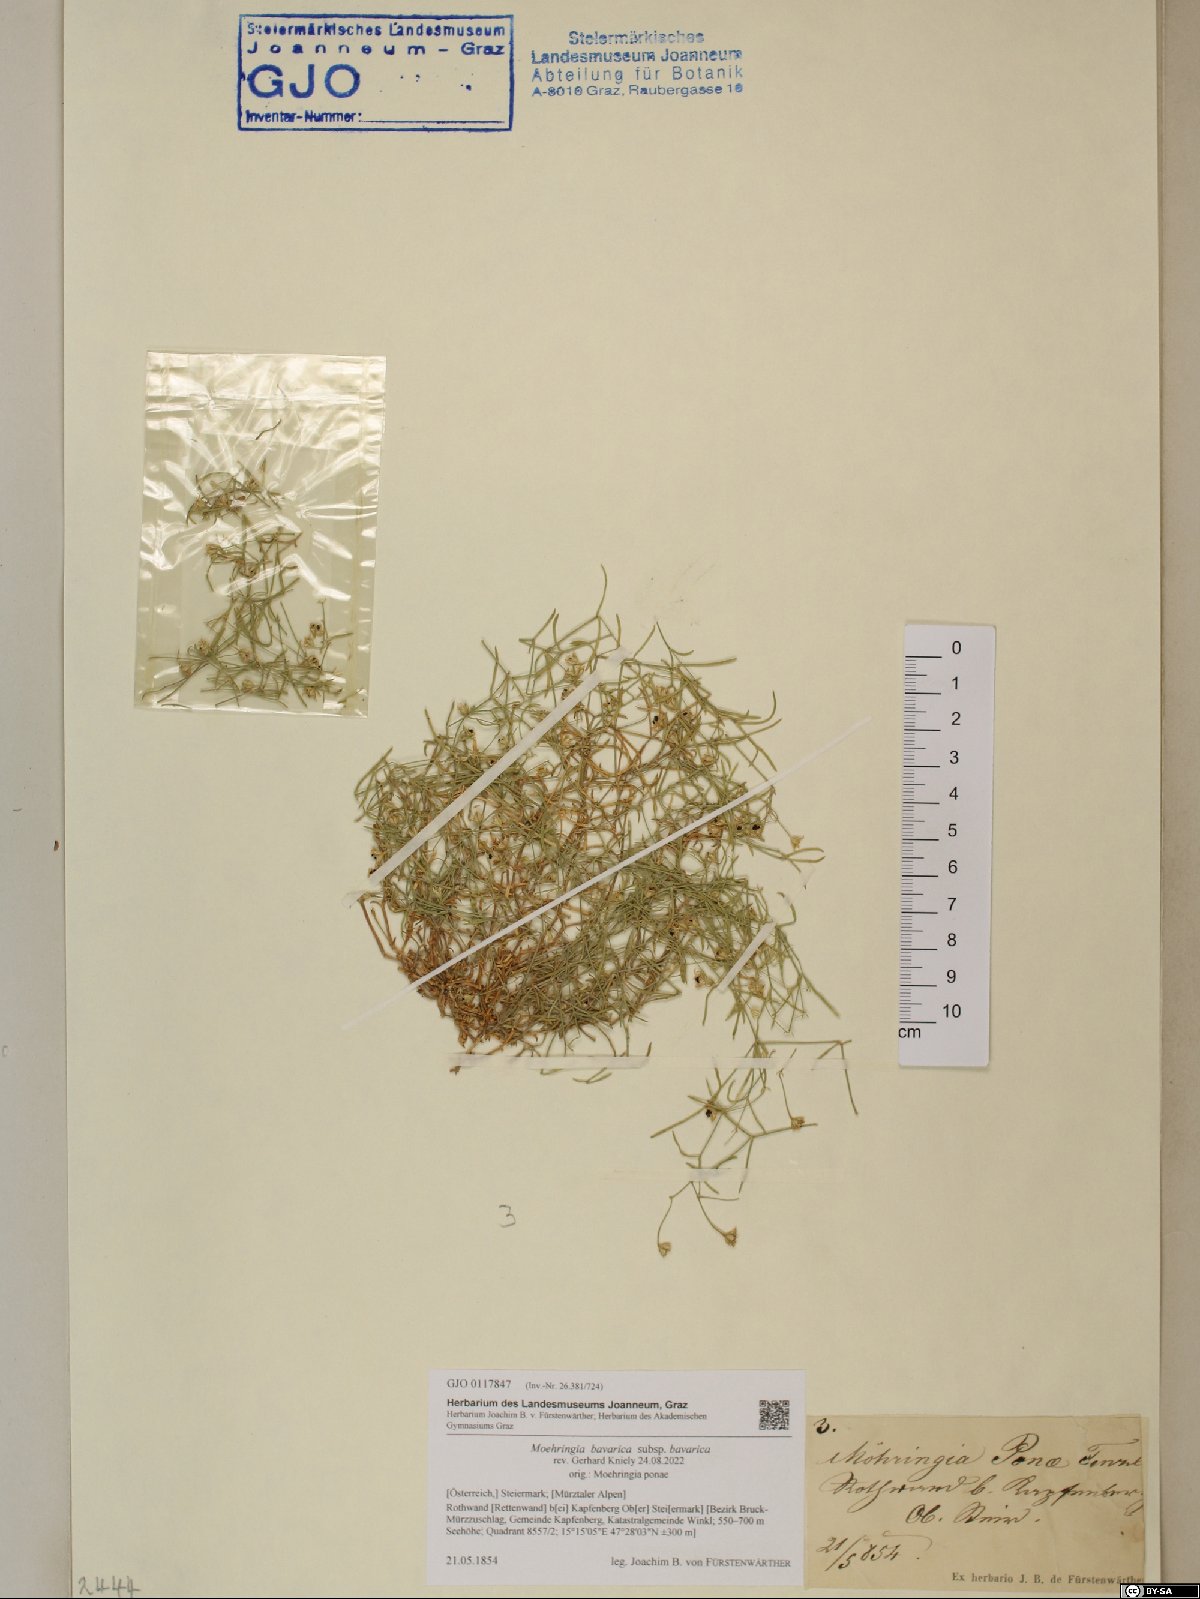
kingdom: Plantae
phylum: Tracheophyta
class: Magnoliopsida
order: Caryophyllales
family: Caryophyllaceae
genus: Moehringia
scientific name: Moehringia bavarica
